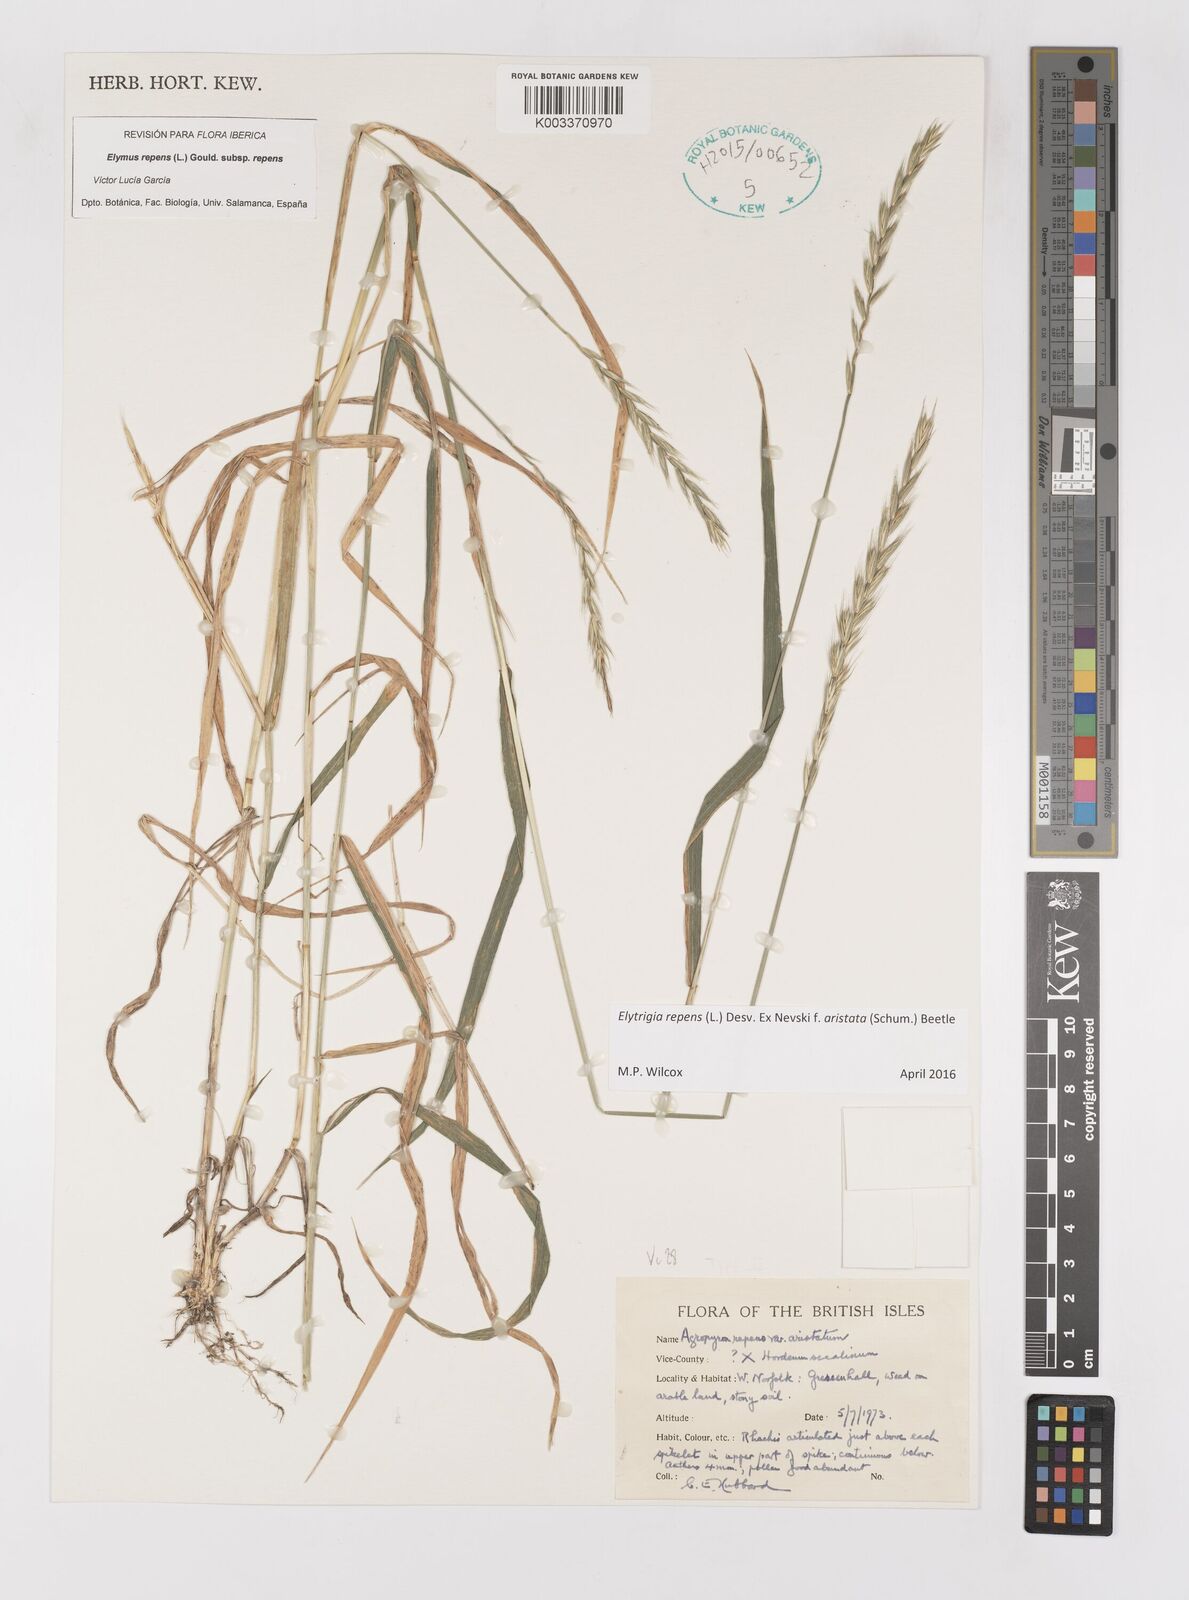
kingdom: Plantae
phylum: Tracheophyta
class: Liliopsida
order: Poales
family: Poaceae
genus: Elymus
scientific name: Elymus repens
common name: Quackgrass
